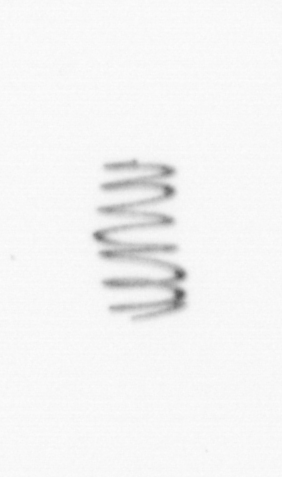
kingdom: Chromista
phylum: Ochrophyta
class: Bacillariophyceae
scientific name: Bacillariophyceae
